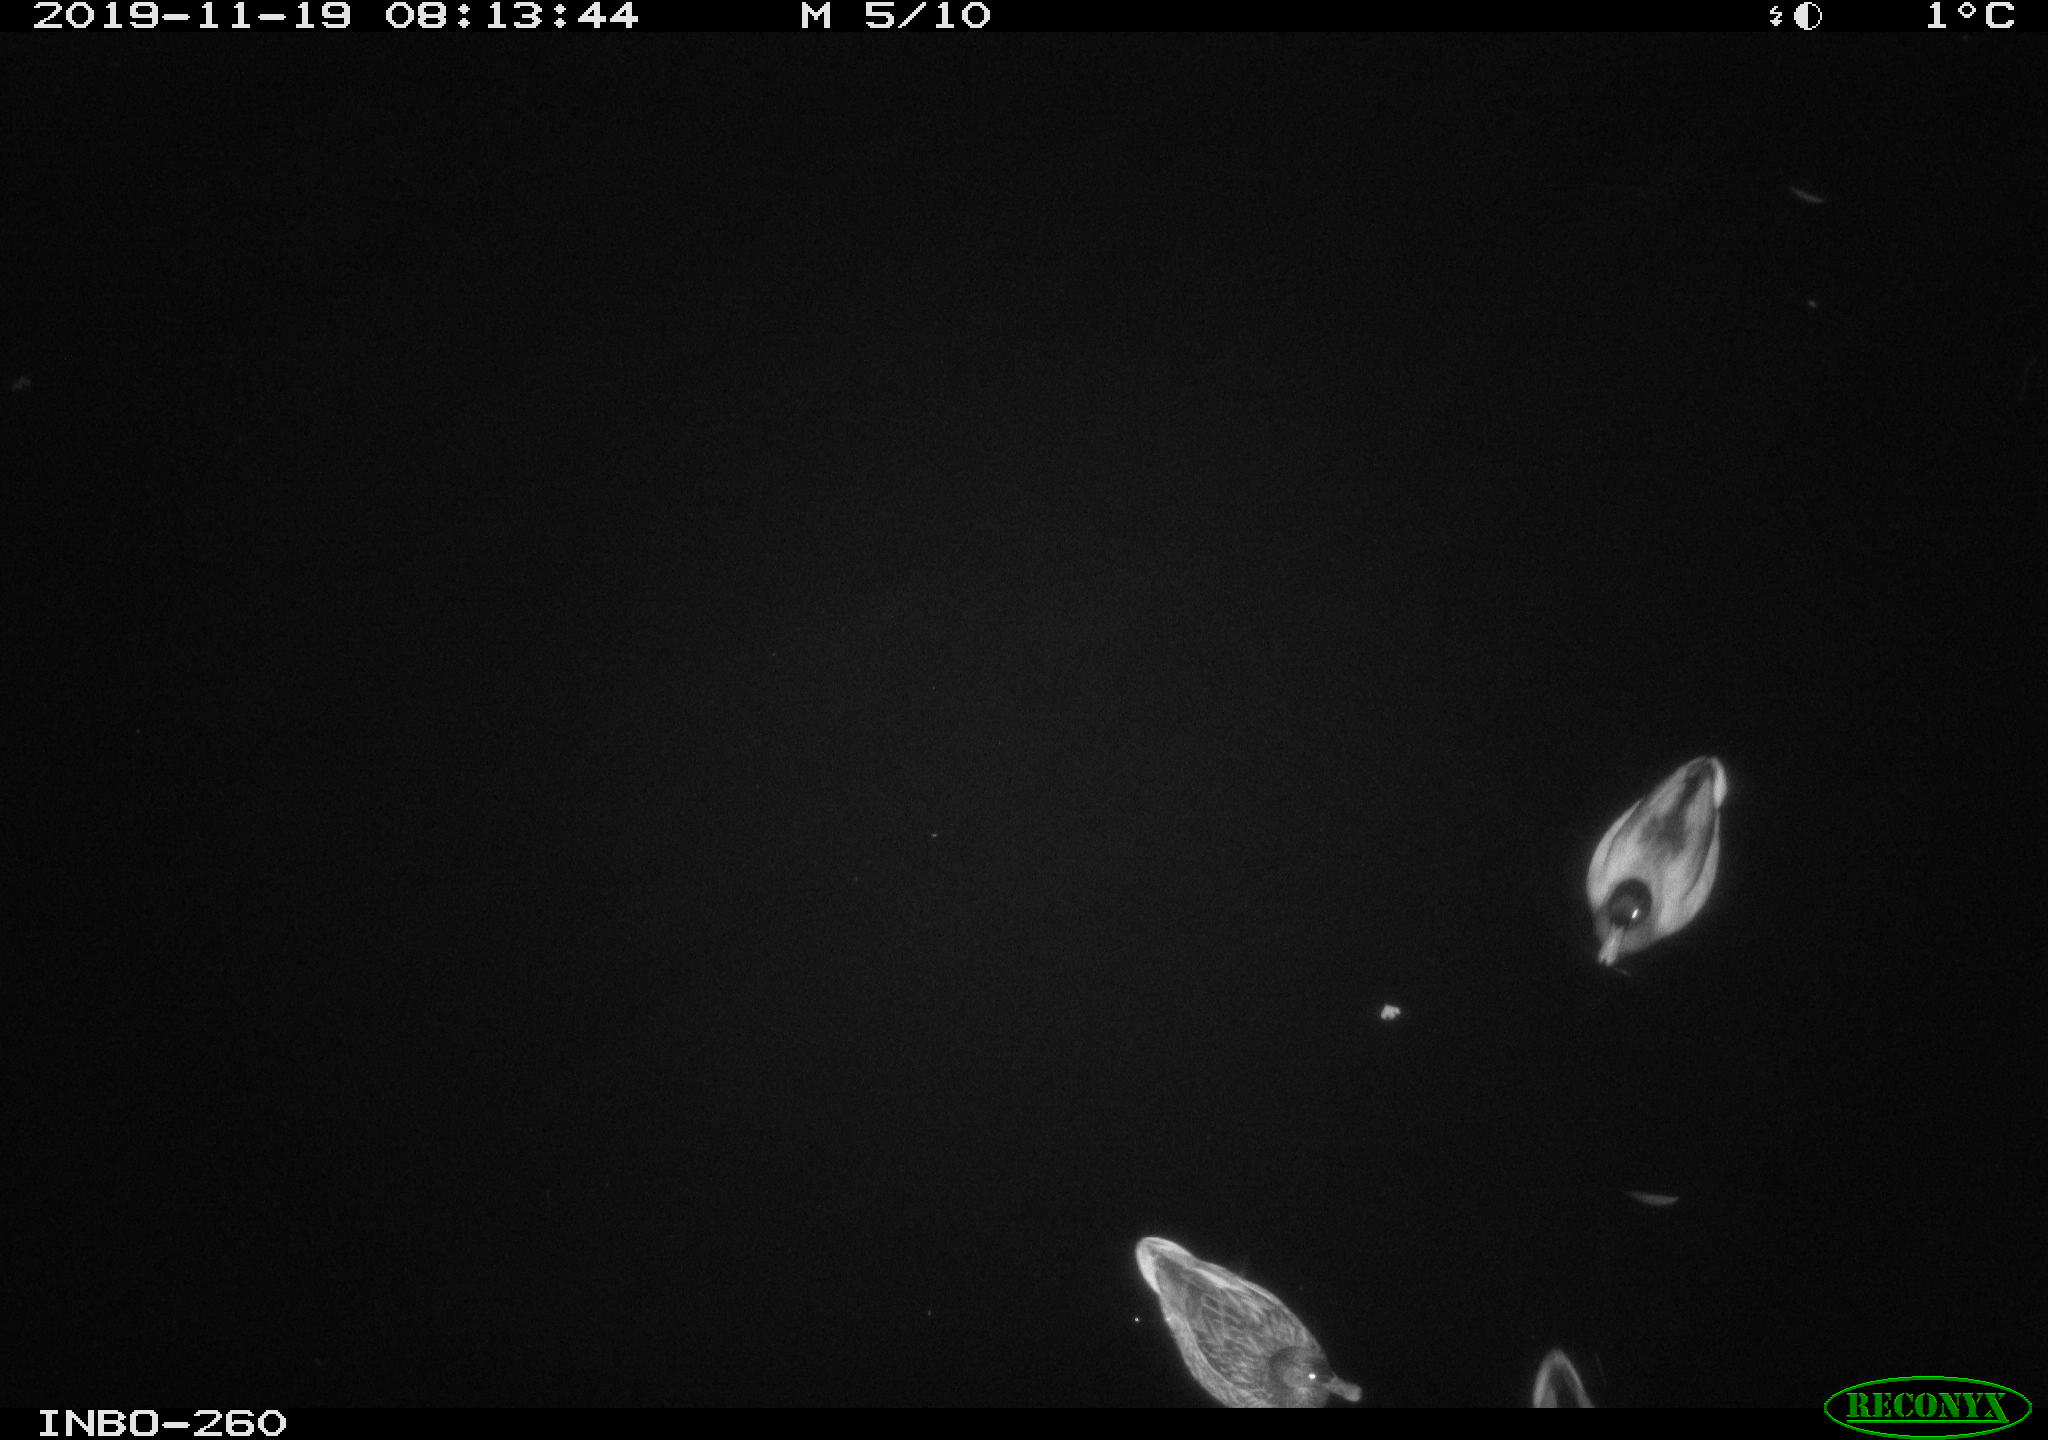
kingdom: Animalia
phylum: Chordata
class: Aves
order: Anseriformes
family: Anatidae
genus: Anas
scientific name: Anas platyrhynchos
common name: Mallard
